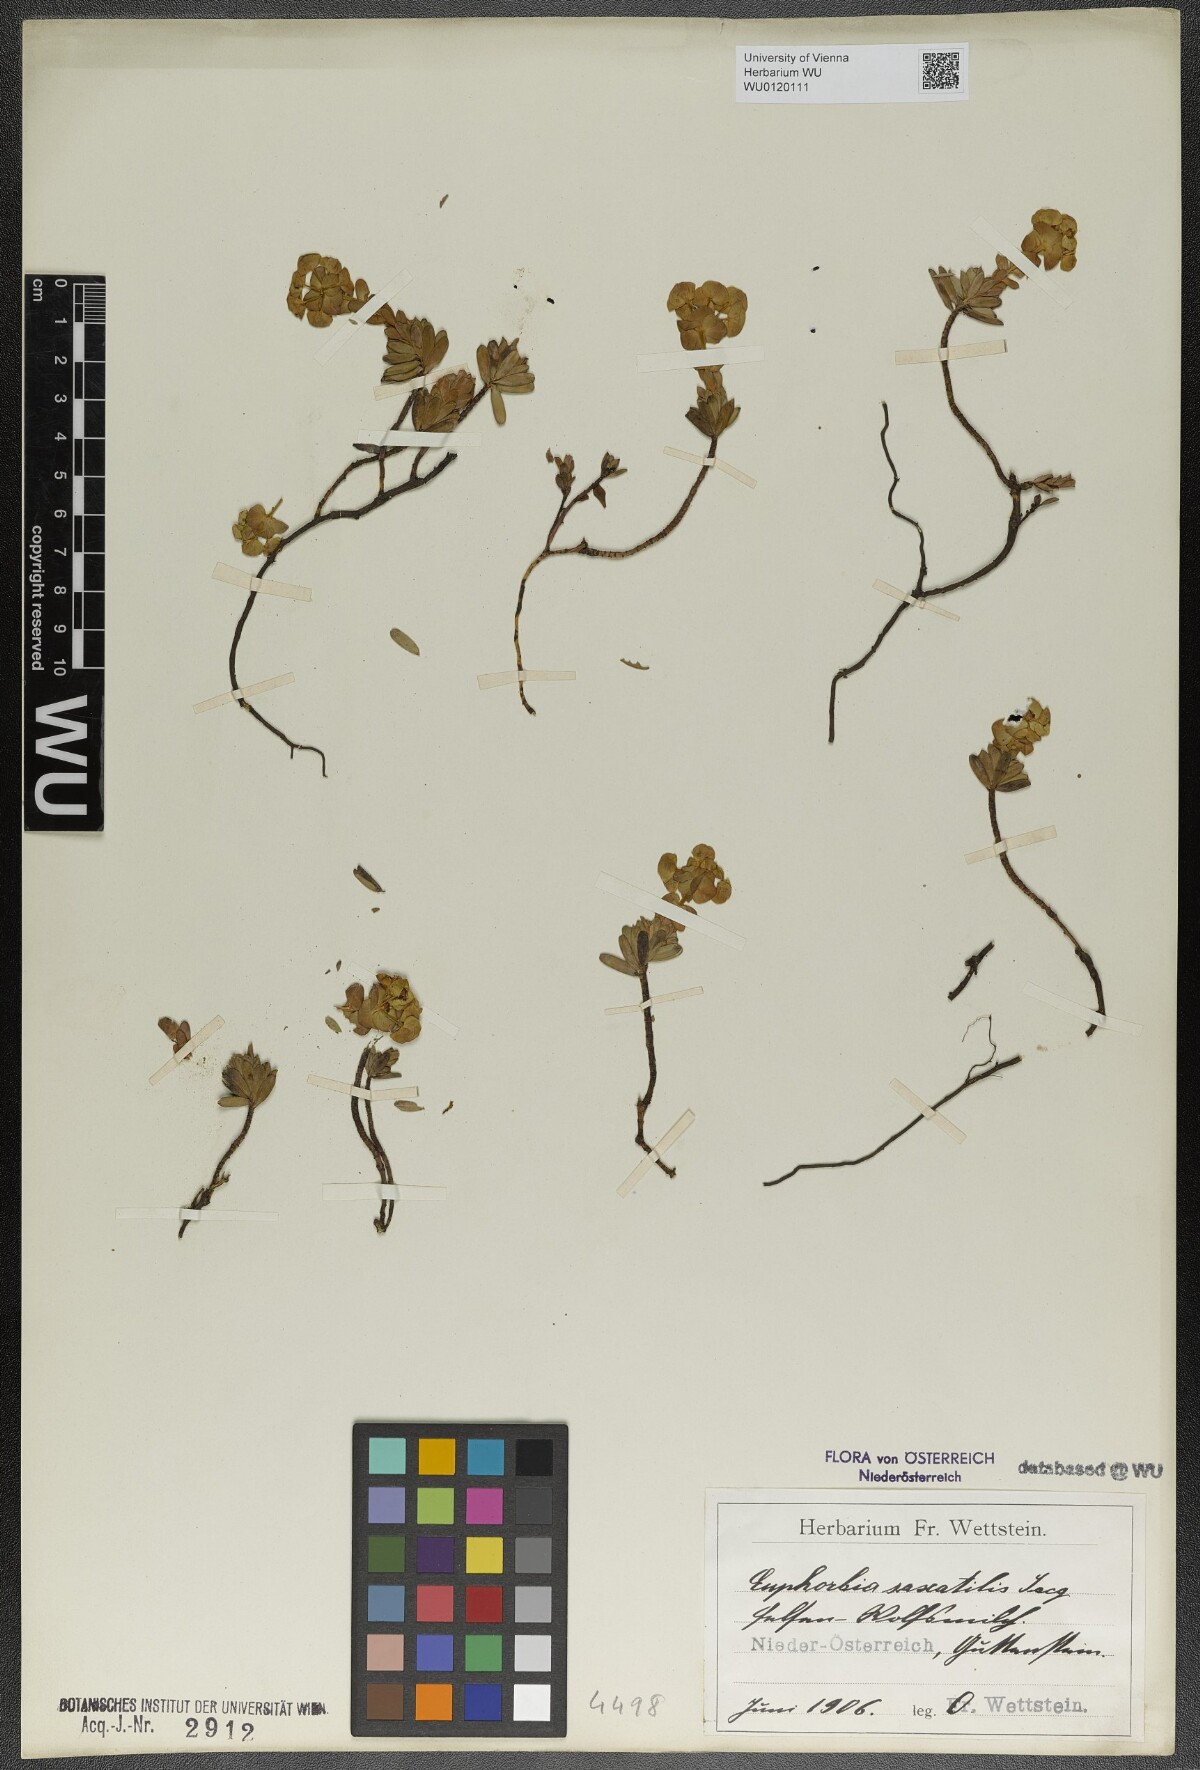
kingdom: Plantae
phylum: Tracheophyta
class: Magnoliopsida
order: Malpighiales
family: Euphorbiaceae
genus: Euphorbia
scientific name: Euphorbia saxatilis
